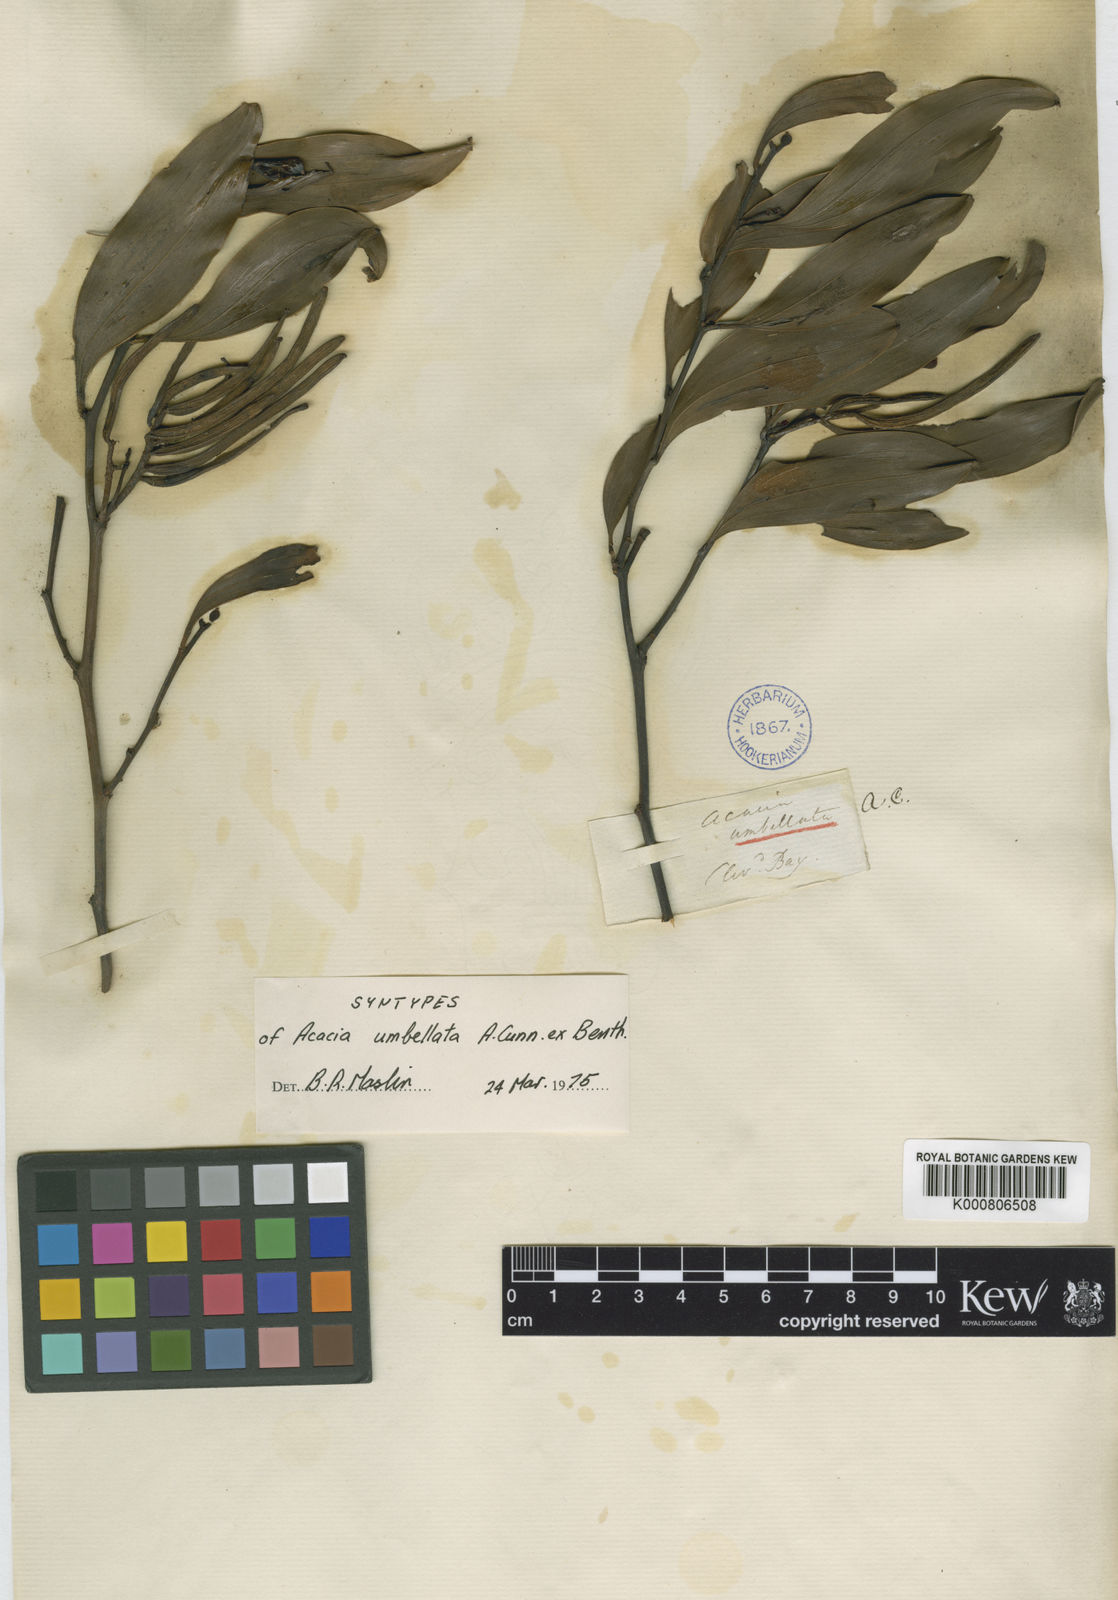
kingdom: Plantae
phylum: Tracheophyta
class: Magnoliopsida
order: Fabales
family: Fabaceae
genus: Acacia
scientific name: Acacia umbellata
